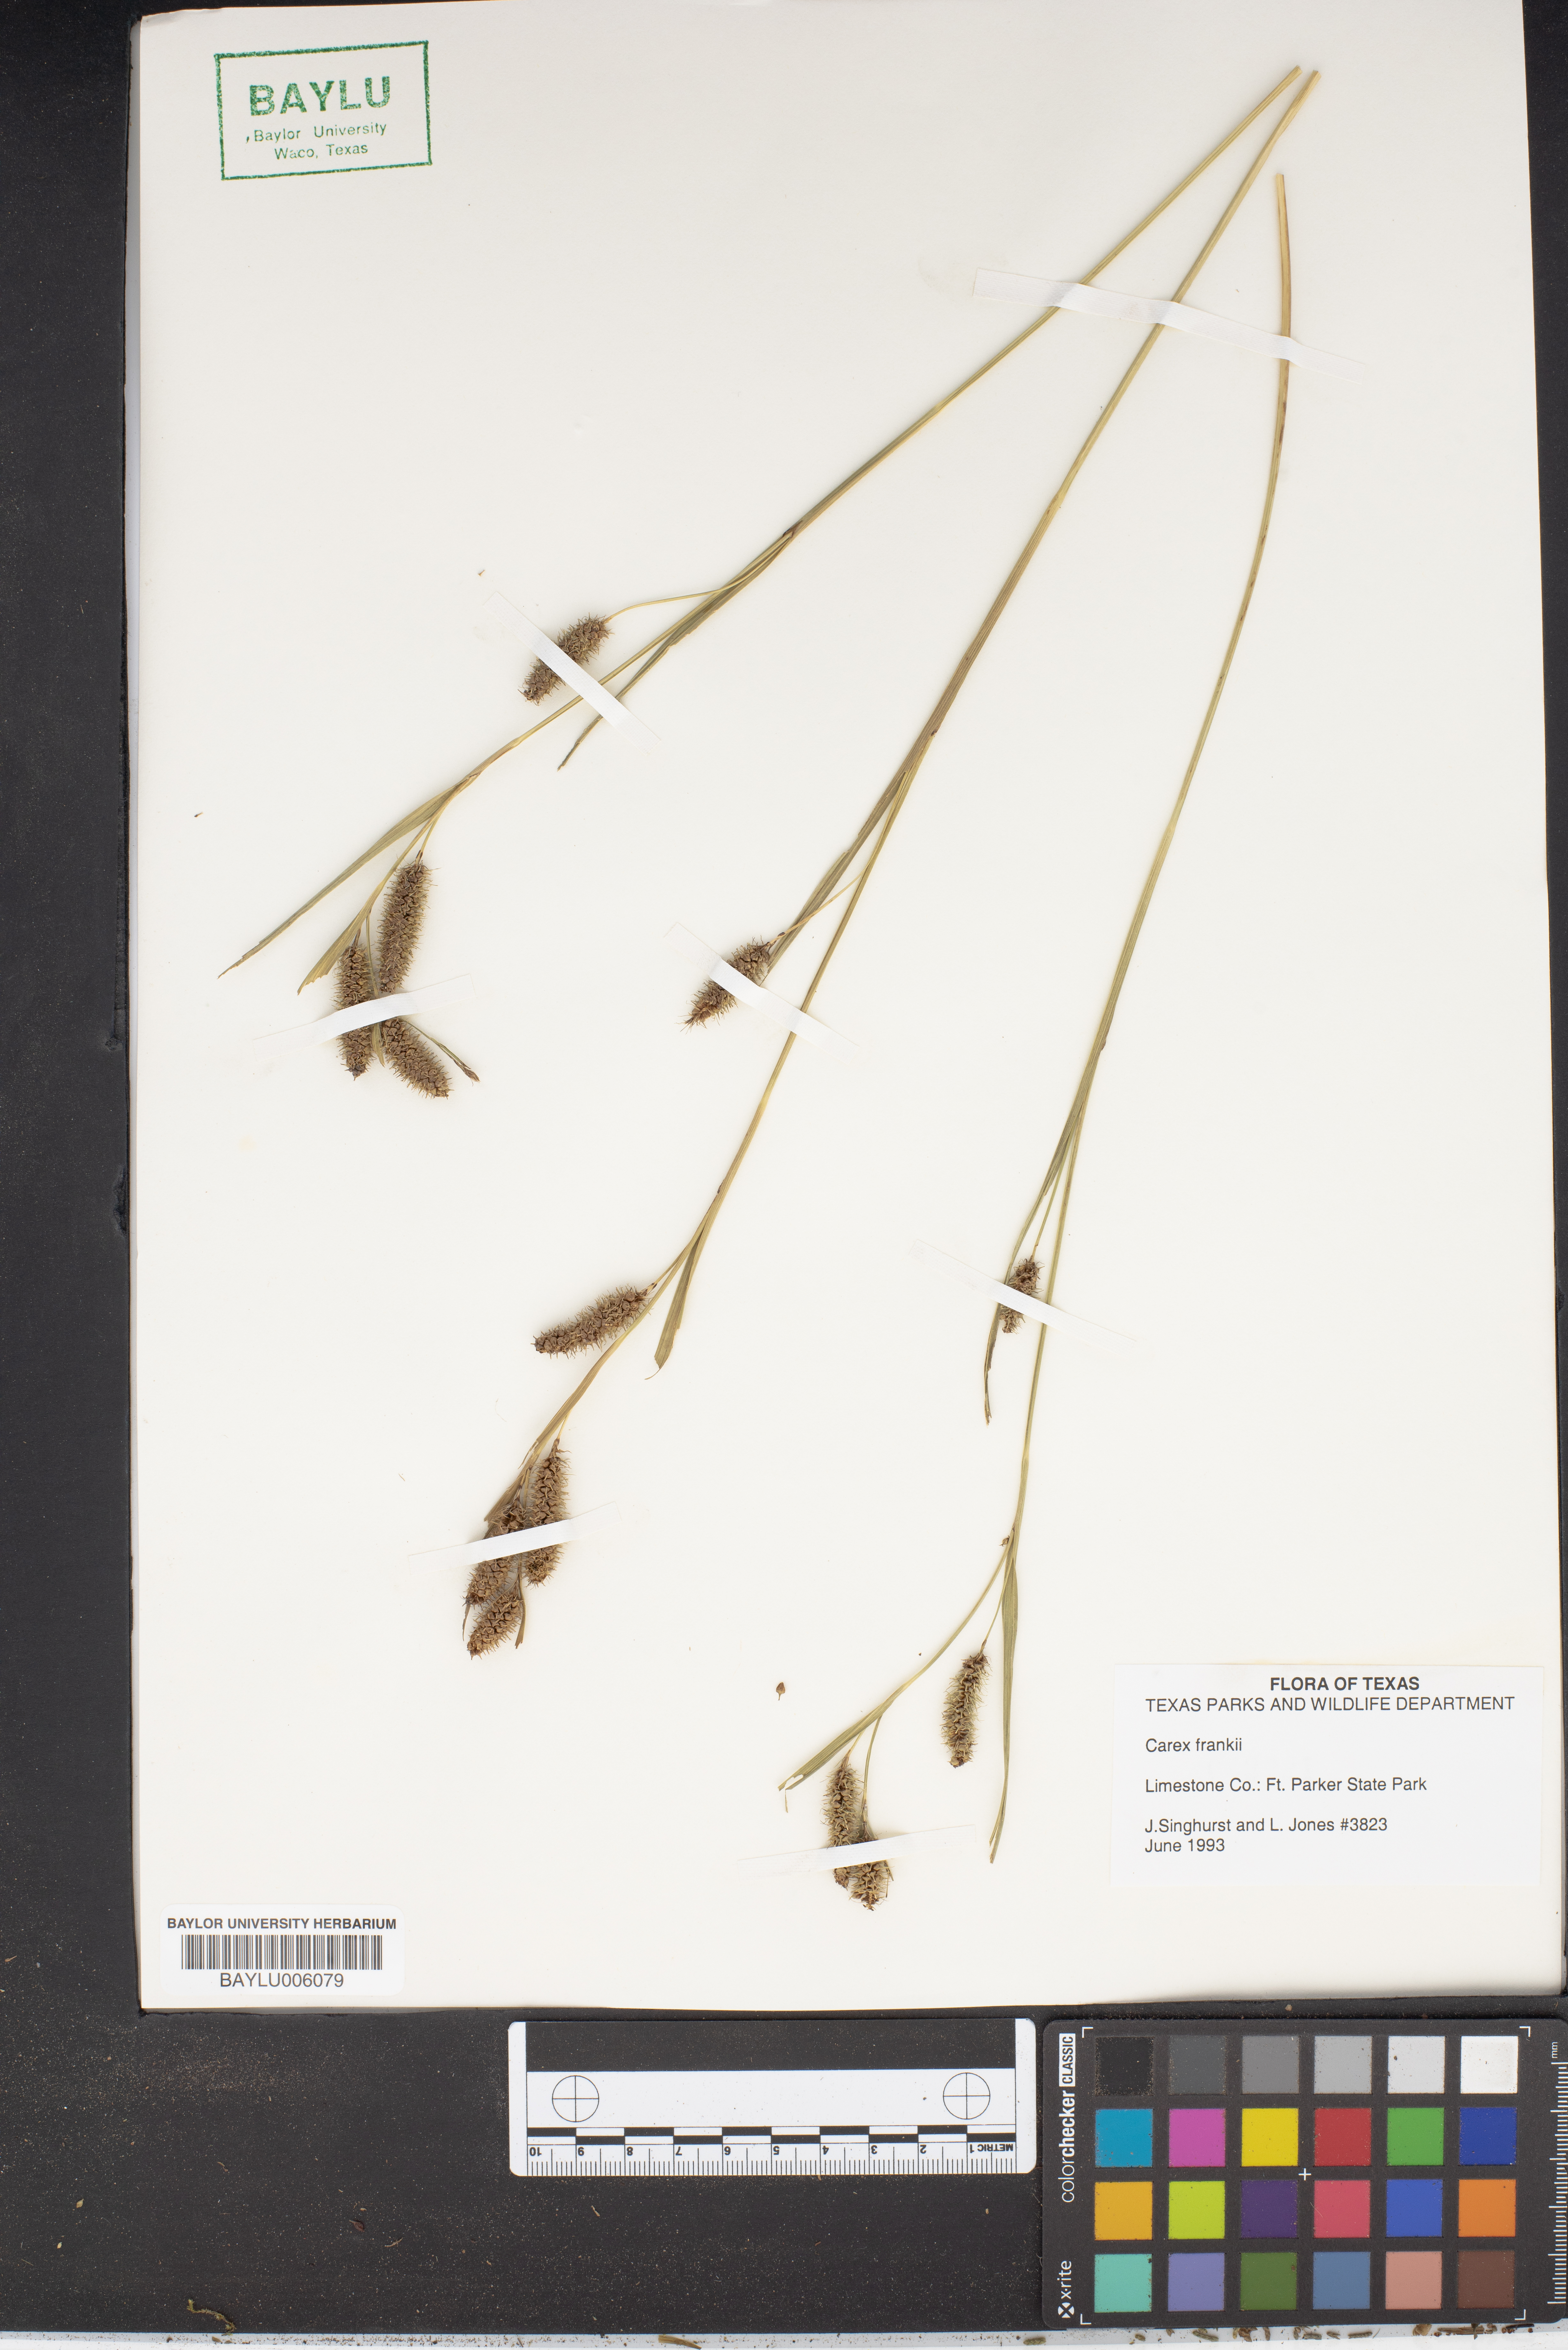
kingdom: Plantae
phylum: Tracheophyta
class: Liliopsida
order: Poales
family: Cyperaceae
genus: Carex
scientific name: Carex frankii
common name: Frank's sedge
